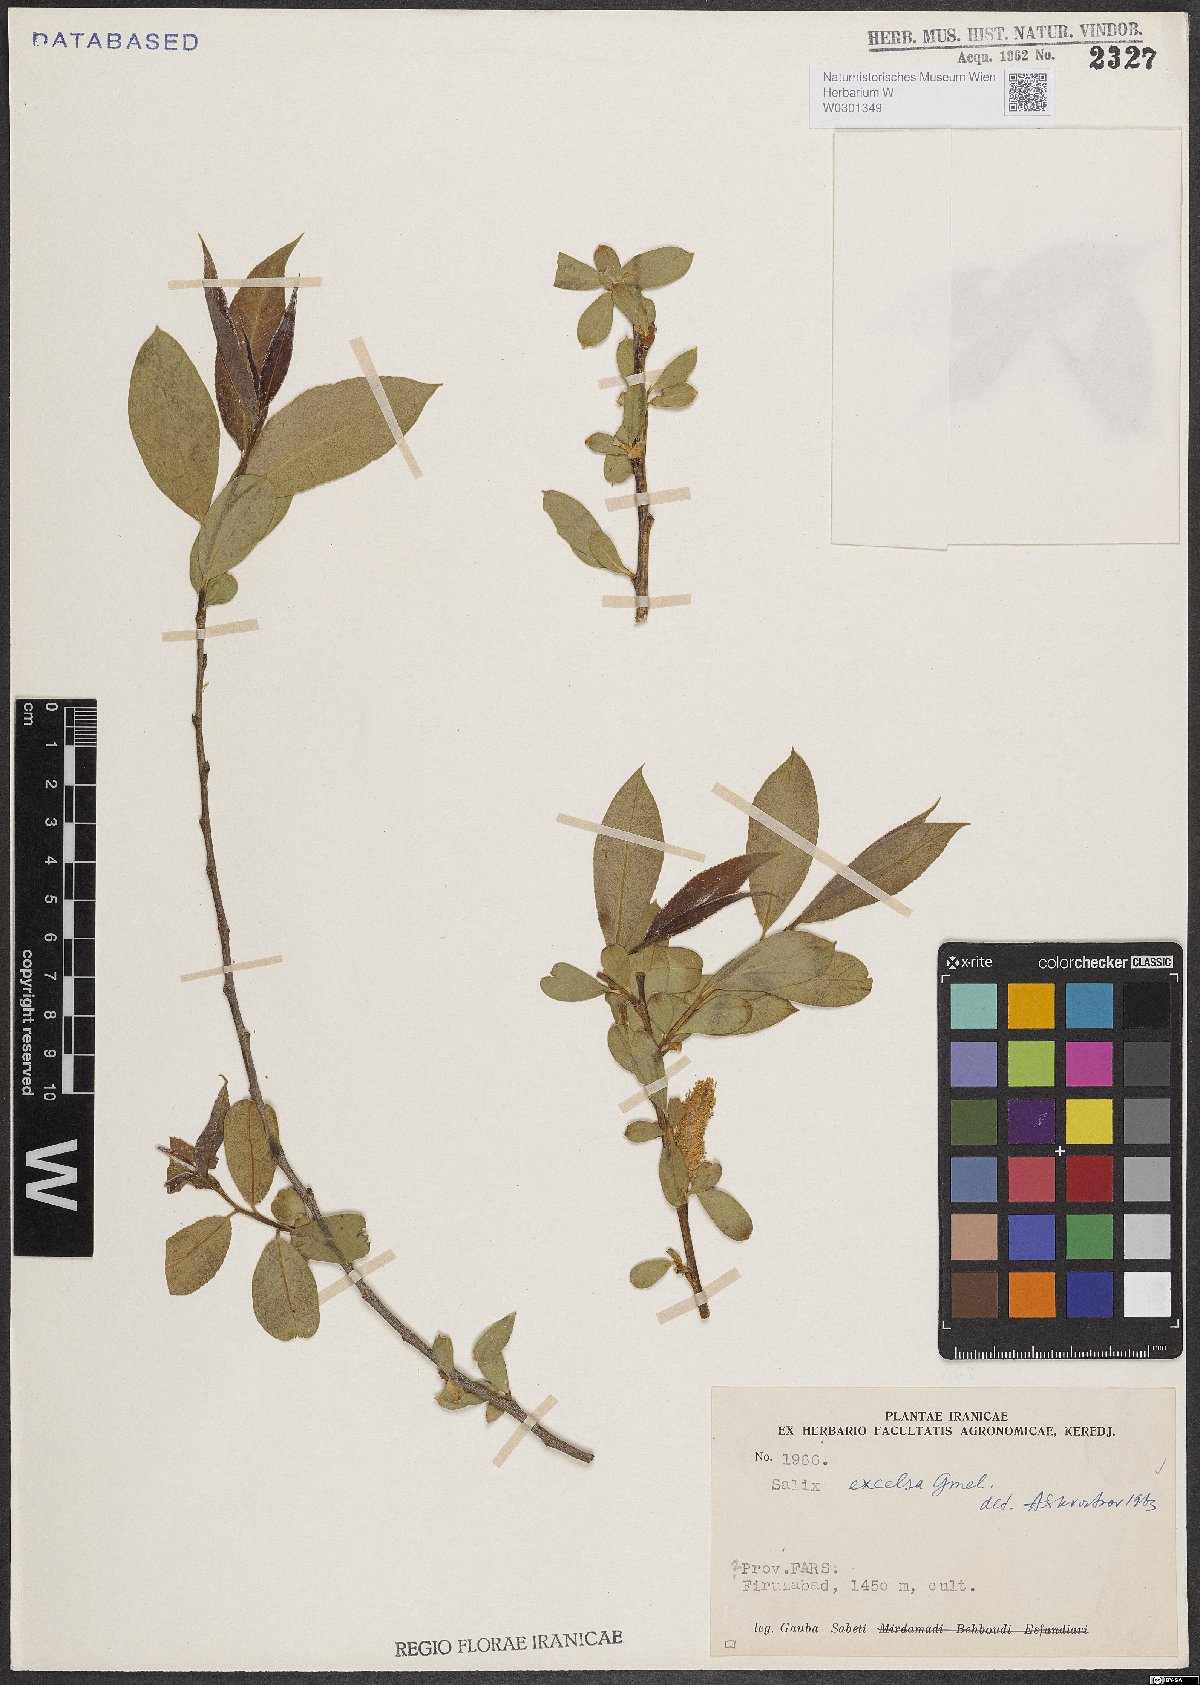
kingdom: Plantae
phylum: Tracheophyta
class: Magnoliopsida
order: Malpighiales
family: Salicaceae
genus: Salix
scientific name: Salix excelsa
